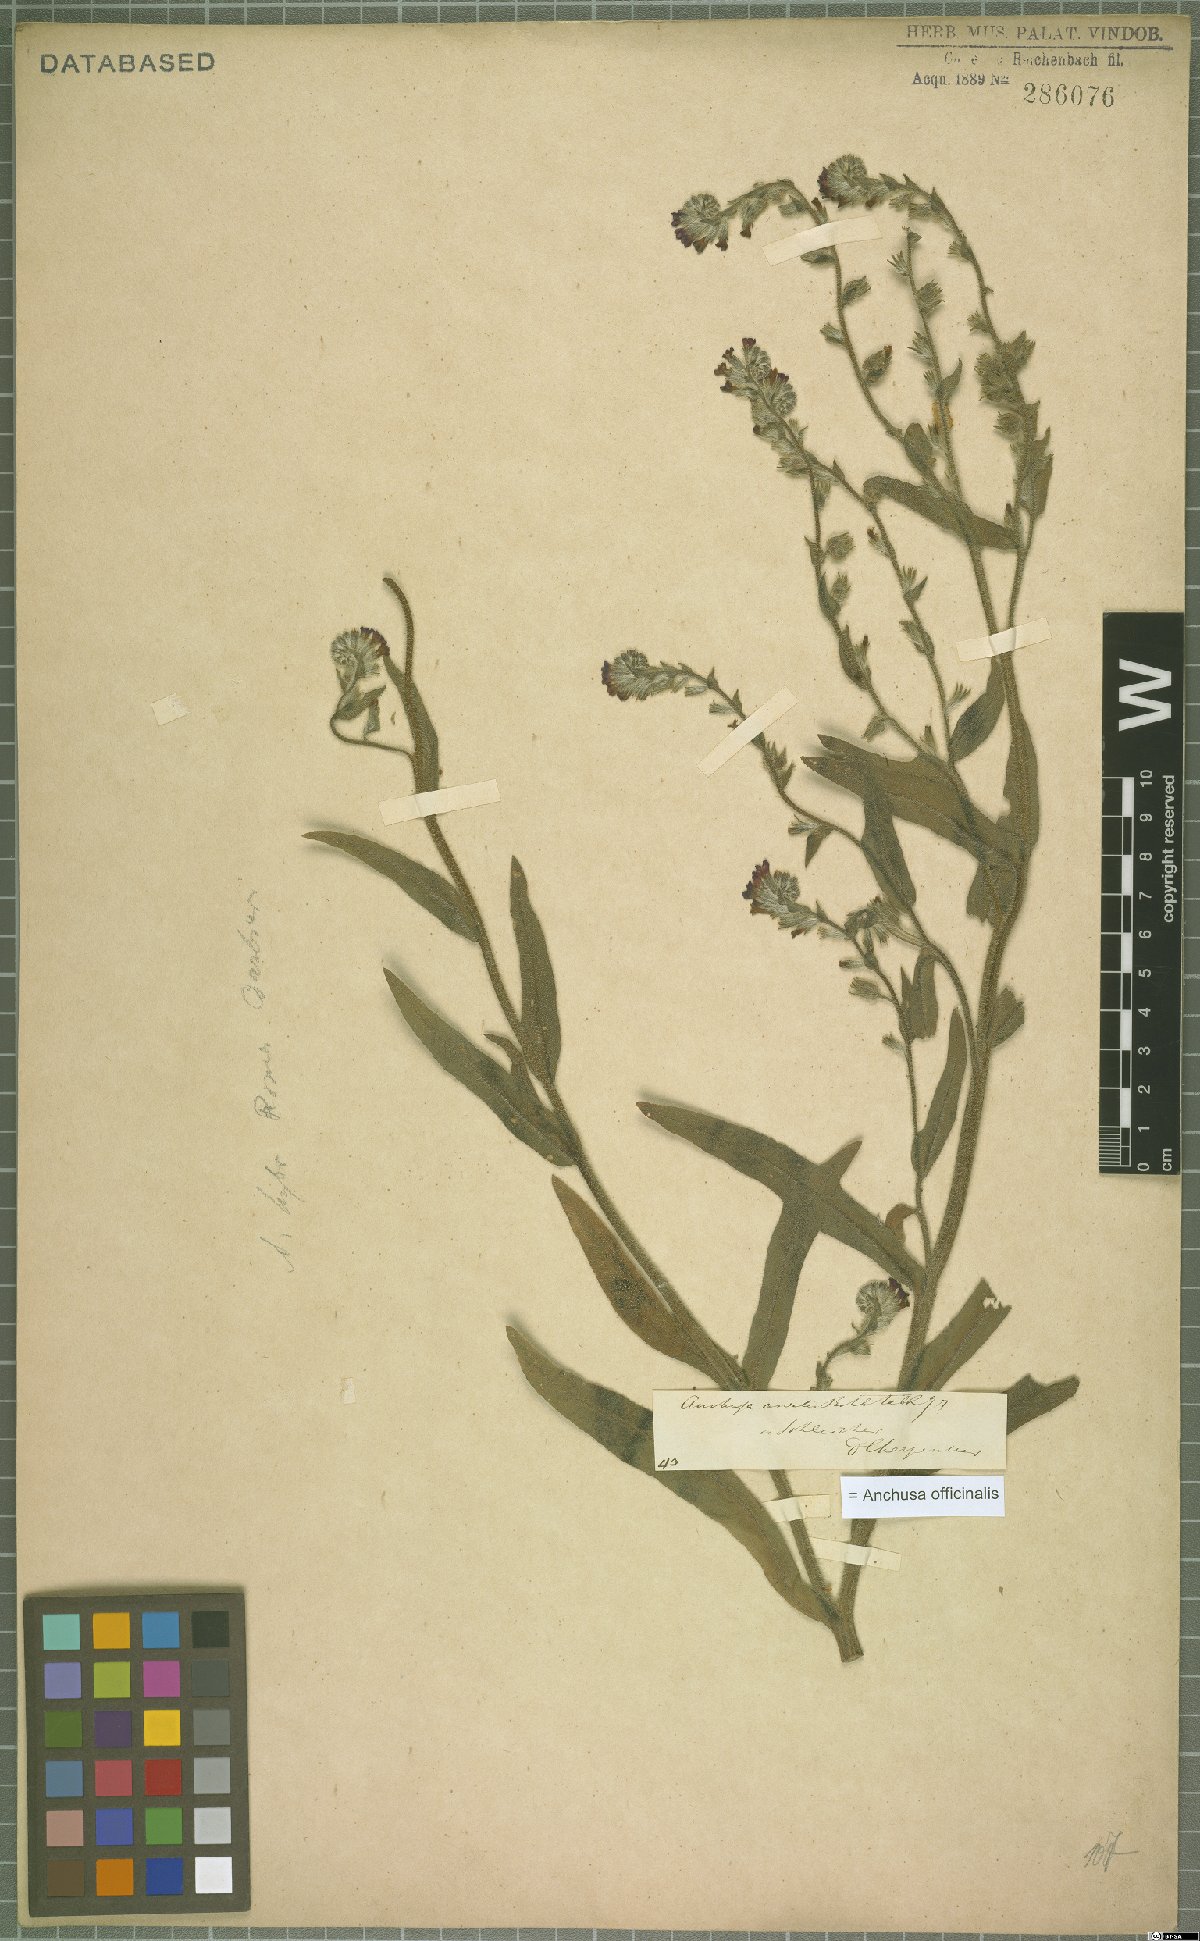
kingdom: Plantae
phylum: Tracheophyta
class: Magnoliopsida
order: Boraginales
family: Boraginaceae
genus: Anchusa
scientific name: Anchusa officinalis
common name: Alkanet
